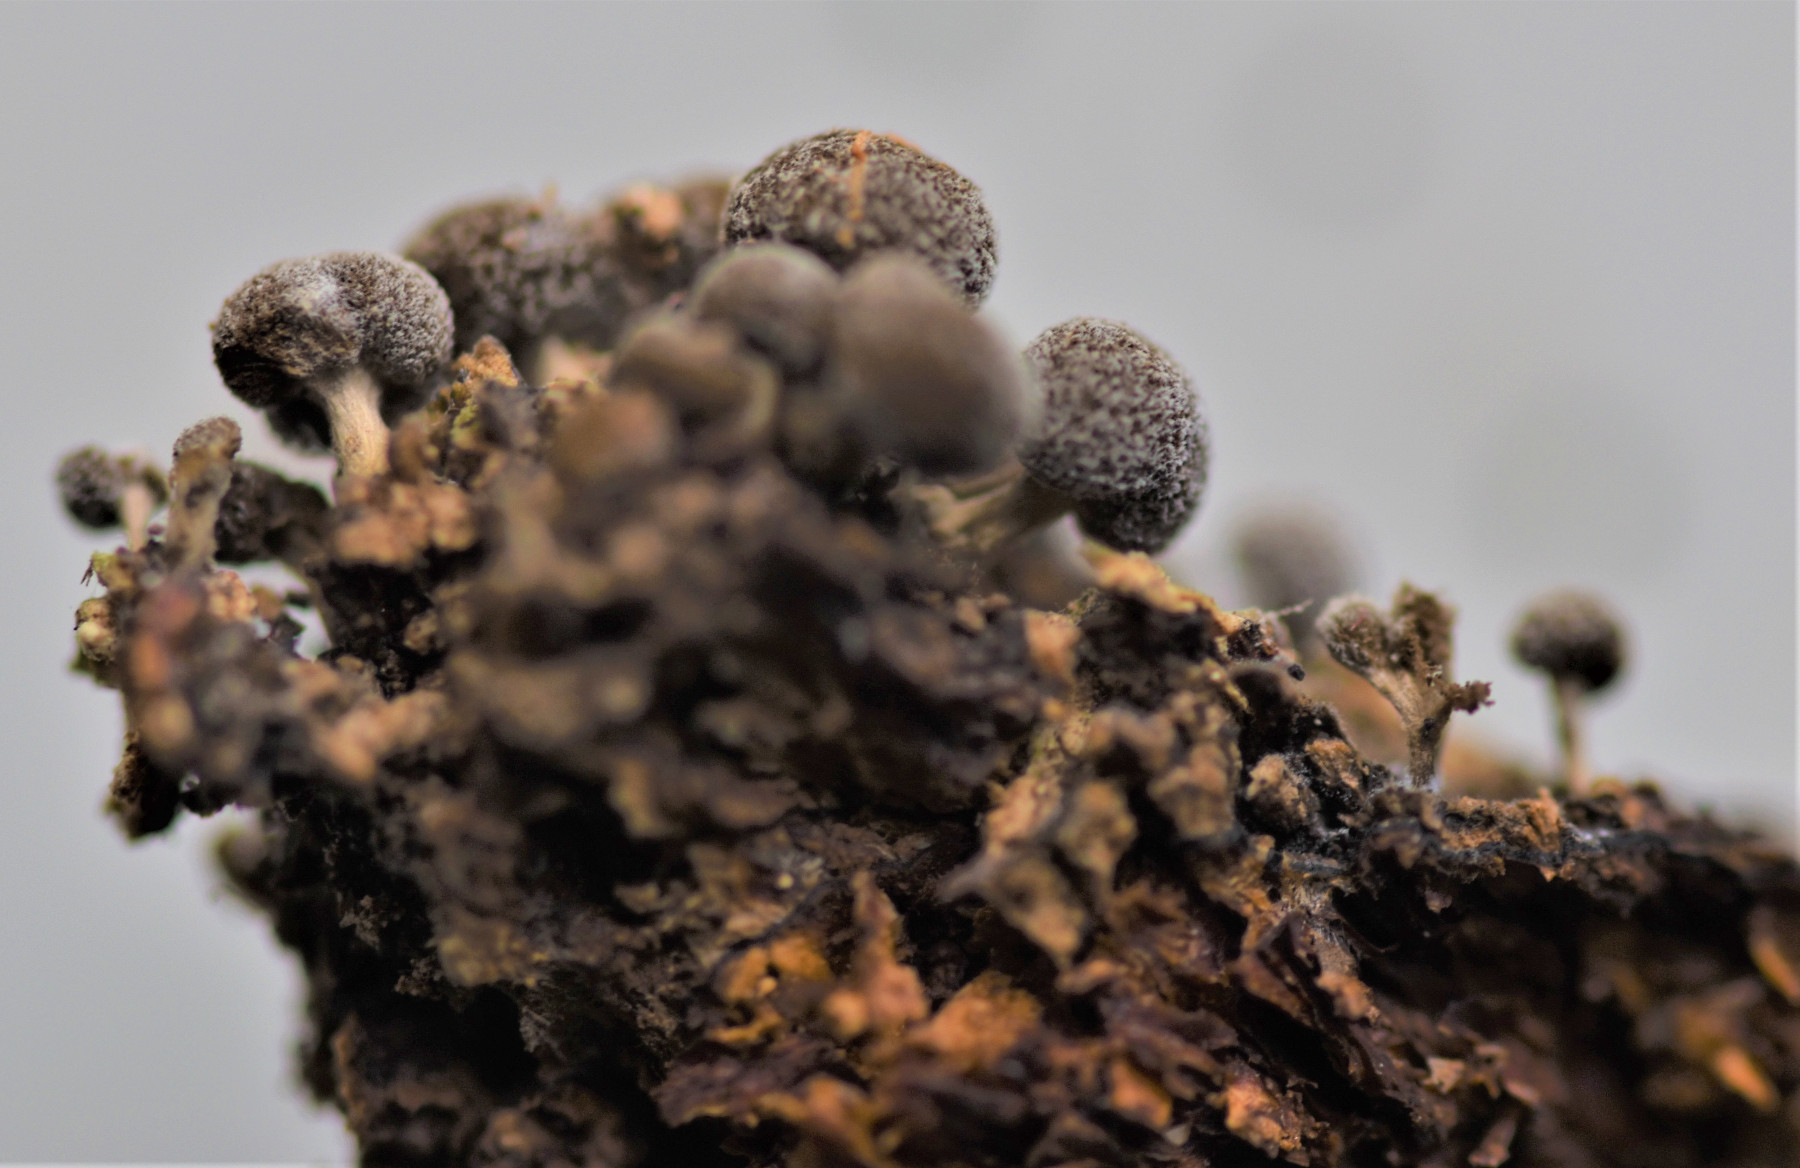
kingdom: Fungi
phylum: Basidiomycota
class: Atractiellomycetes
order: Atractiellales
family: Phleogenaceae
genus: Phleogena
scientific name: Phleogena faginea
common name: pudderkølle
